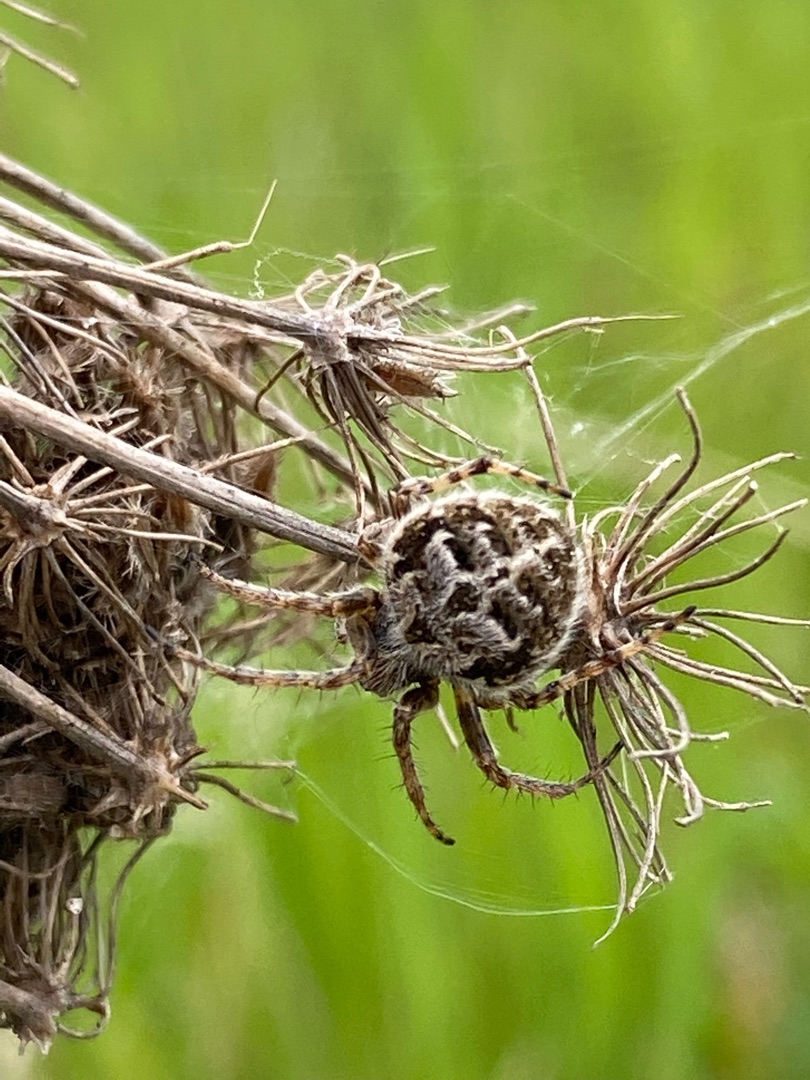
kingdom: Animalia
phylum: Arthropoda
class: Arachnida
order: Araneae
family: Araneidae
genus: Agalenatea
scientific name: Agalenatea redii
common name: Lodden hjulspinder
